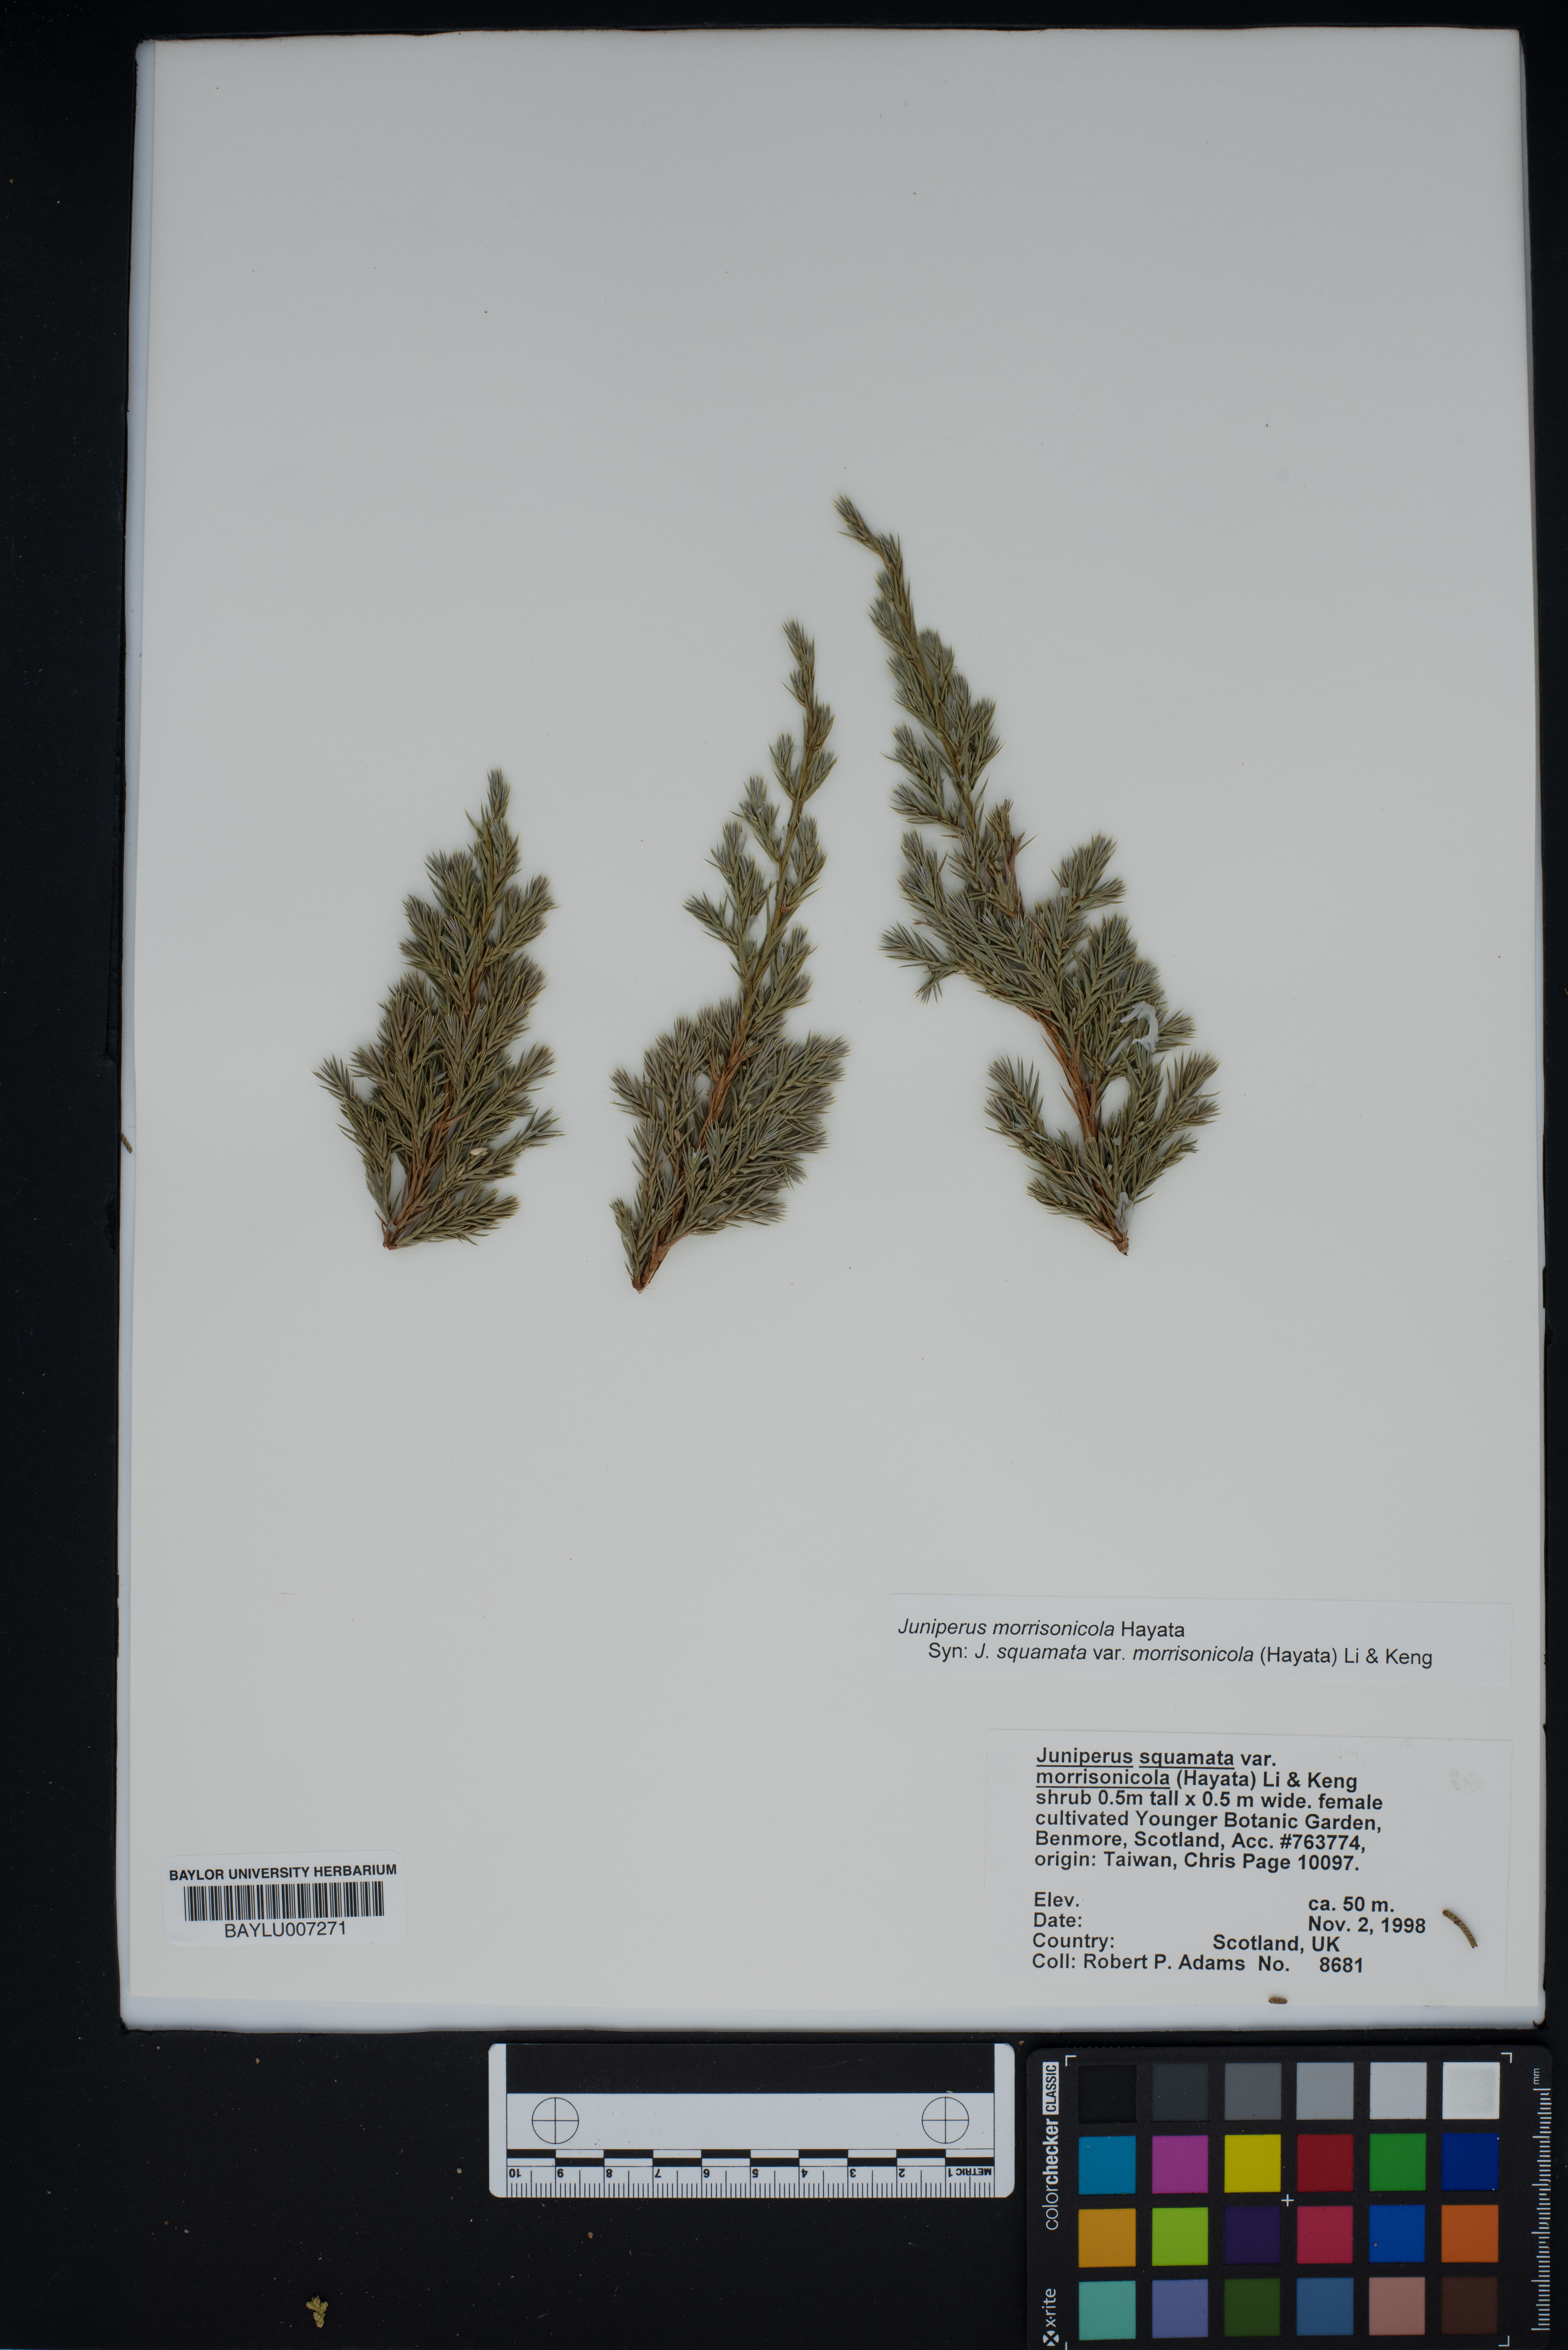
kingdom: Plantae
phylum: Tracheophyta
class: Pinopsida
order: Pinales
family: Cupressaceae
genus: Juniperus
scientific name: Juniperus squamata
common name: Flaky juniper
